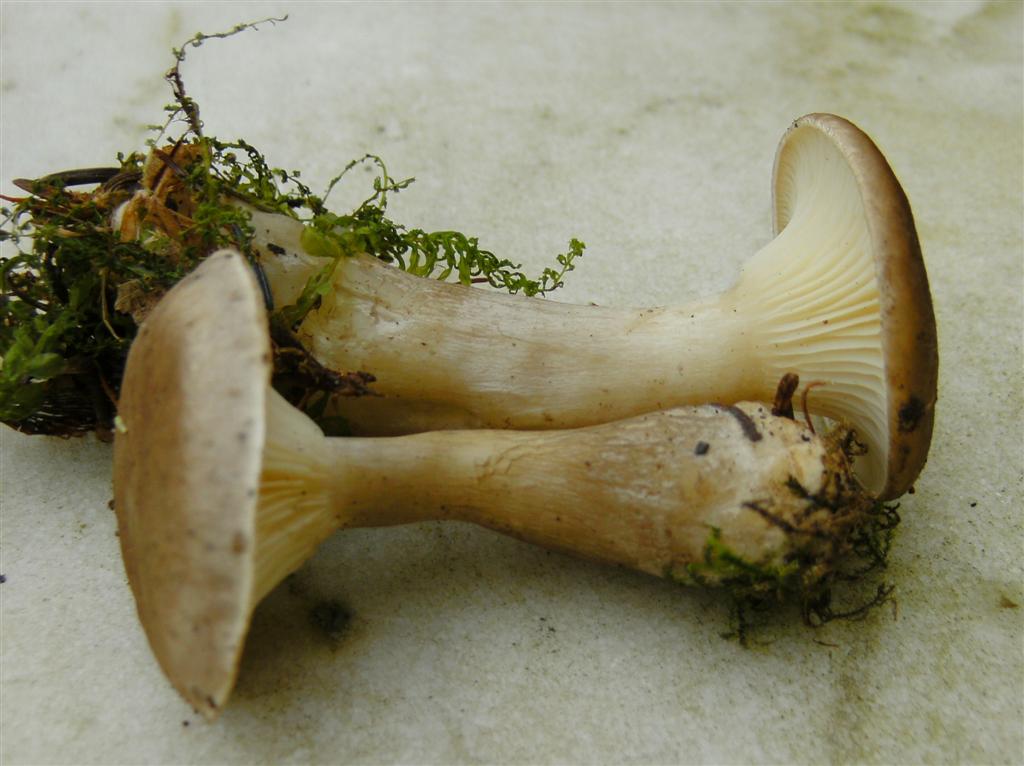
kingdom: Fungi
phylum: Basidiomycota
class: Agaricomycetes
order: Agaricales
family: Hygrophoraceae
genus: Ampulloclitocybe
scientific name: Ampulloclitocybe clavipes
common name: køllefod
